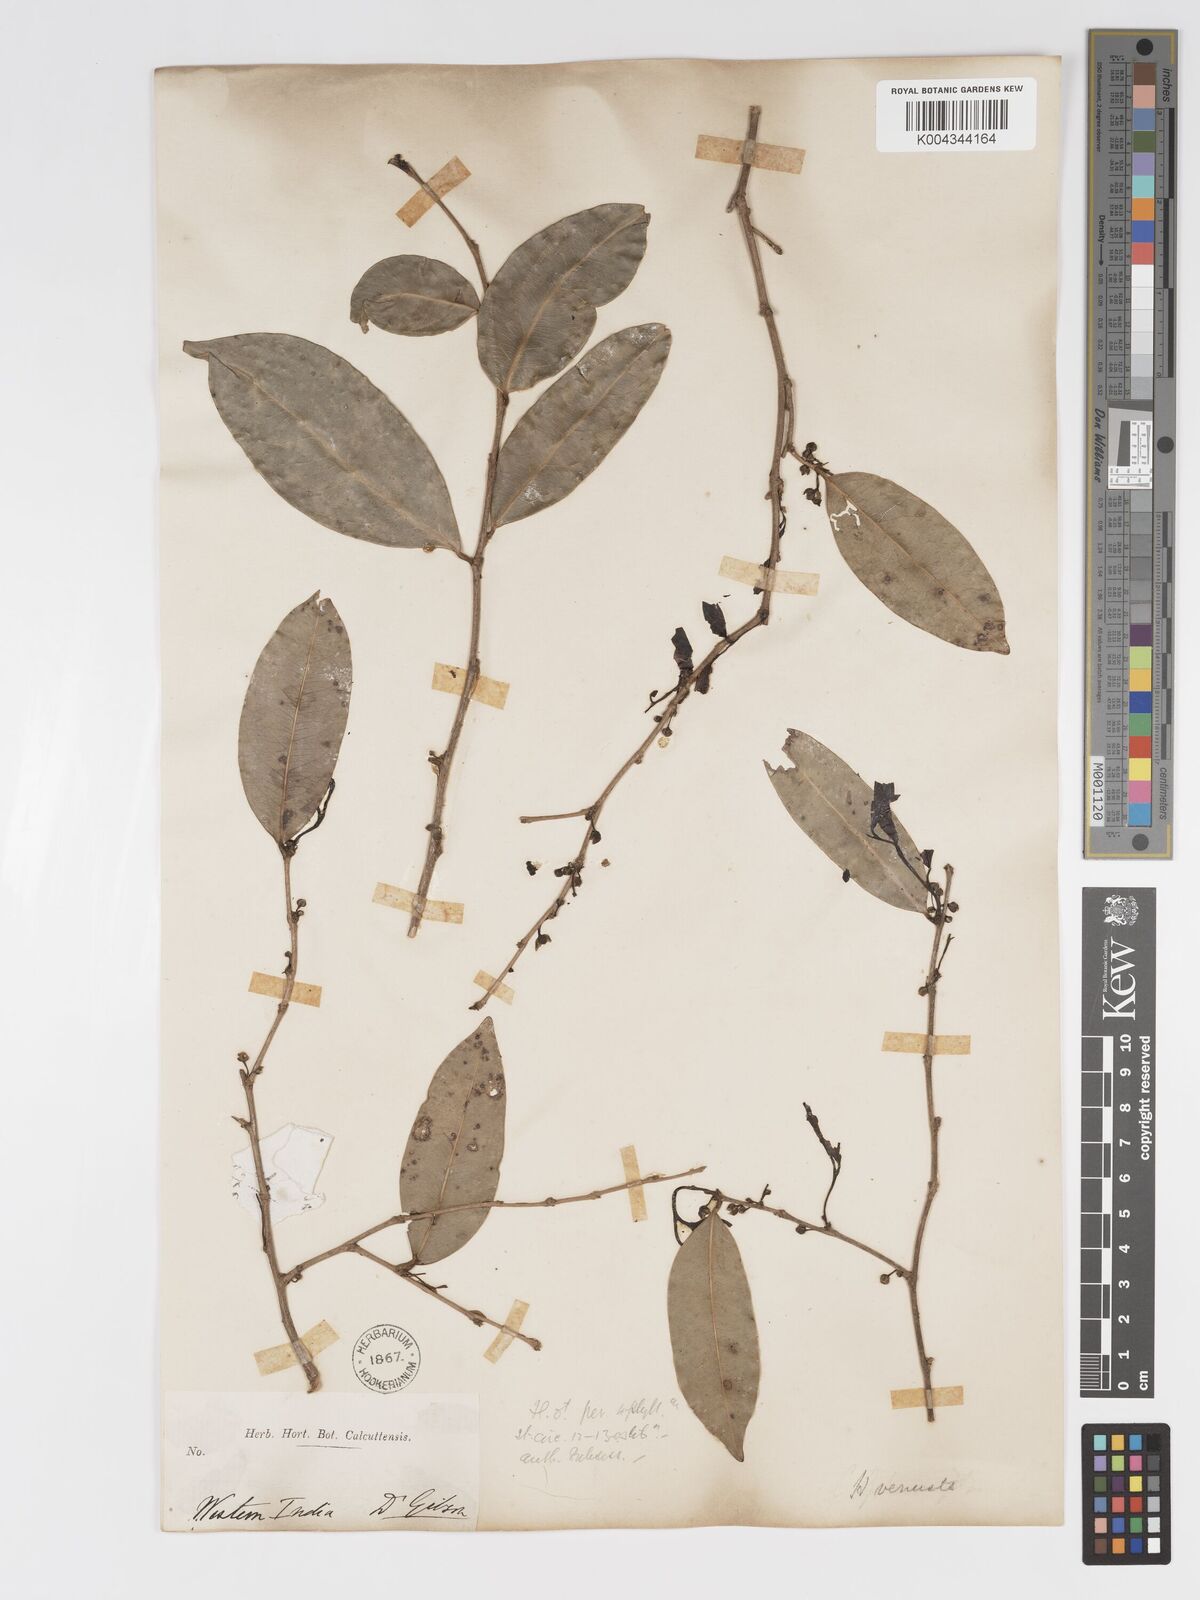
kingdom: Plantae
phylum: Tracheophyta
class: Magnoliopsida
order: Malpighiales
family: Putranjivaceae
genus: Drypetes
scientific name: Drypetes venusta
